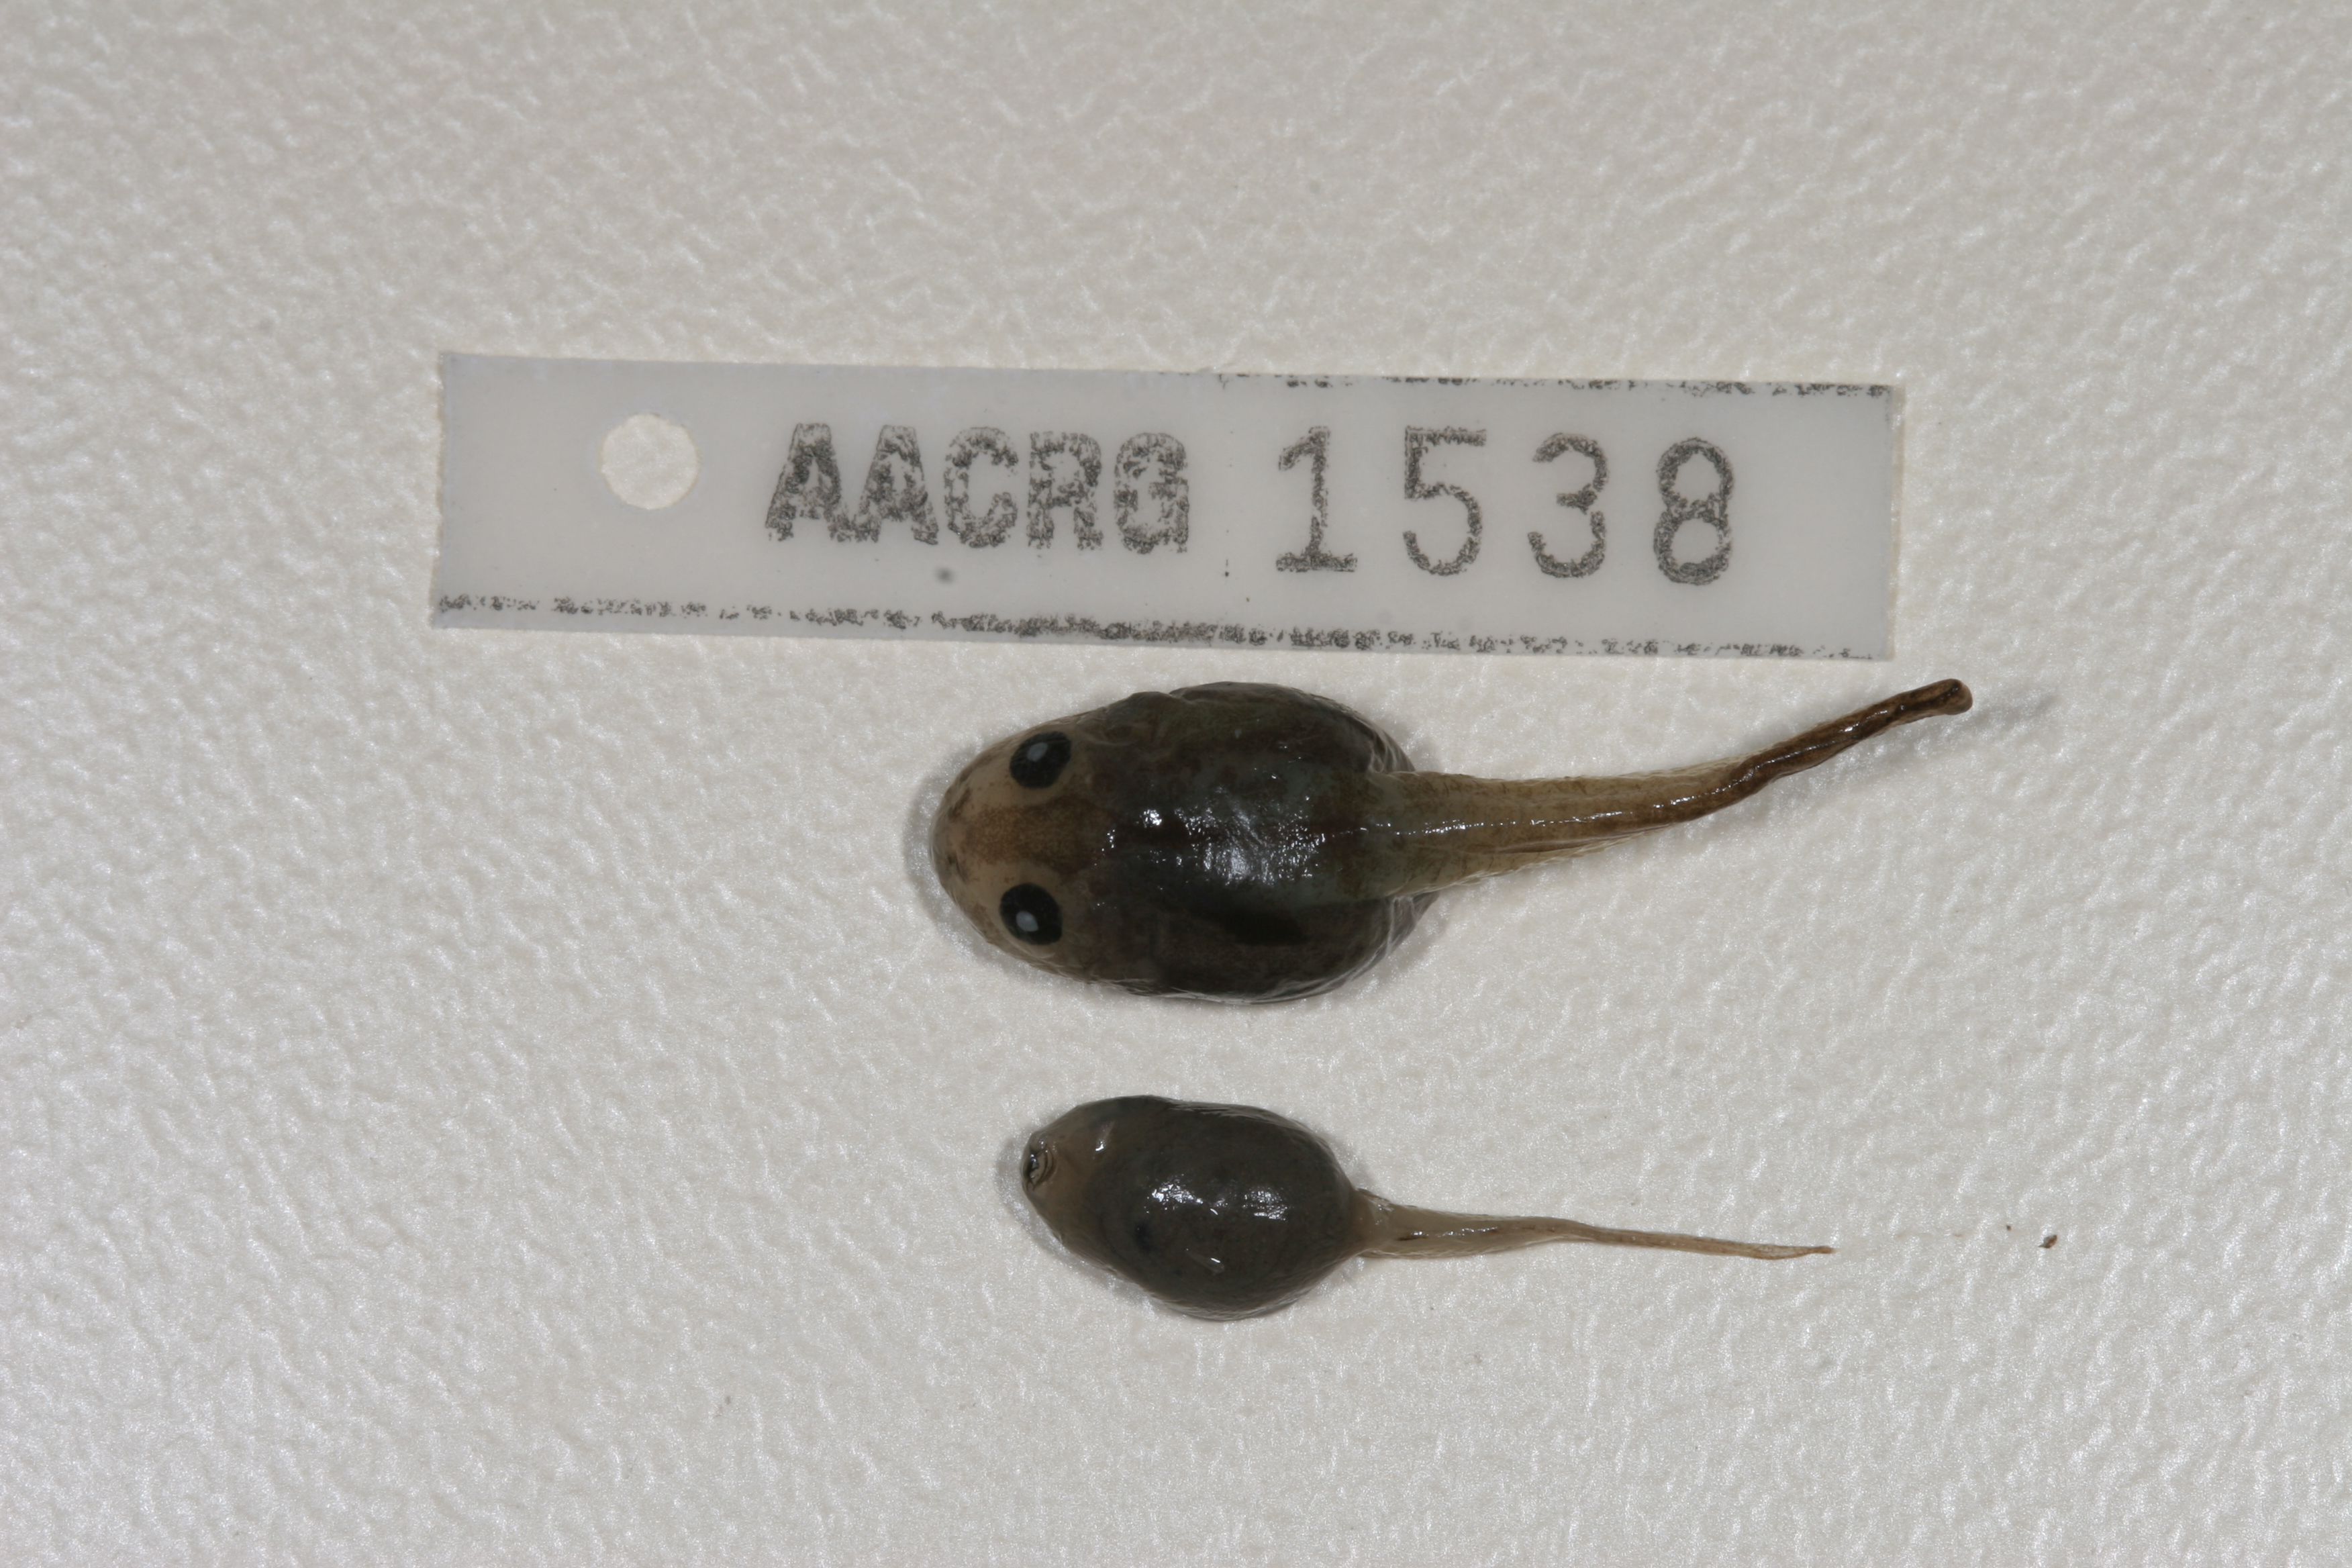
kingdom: Animalia
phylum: Chordata
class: Amphibia
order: Anura
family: Rhacophoridae
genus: Chiromantis
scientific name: Chiromantis xerampelina
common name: African gray treefrog
